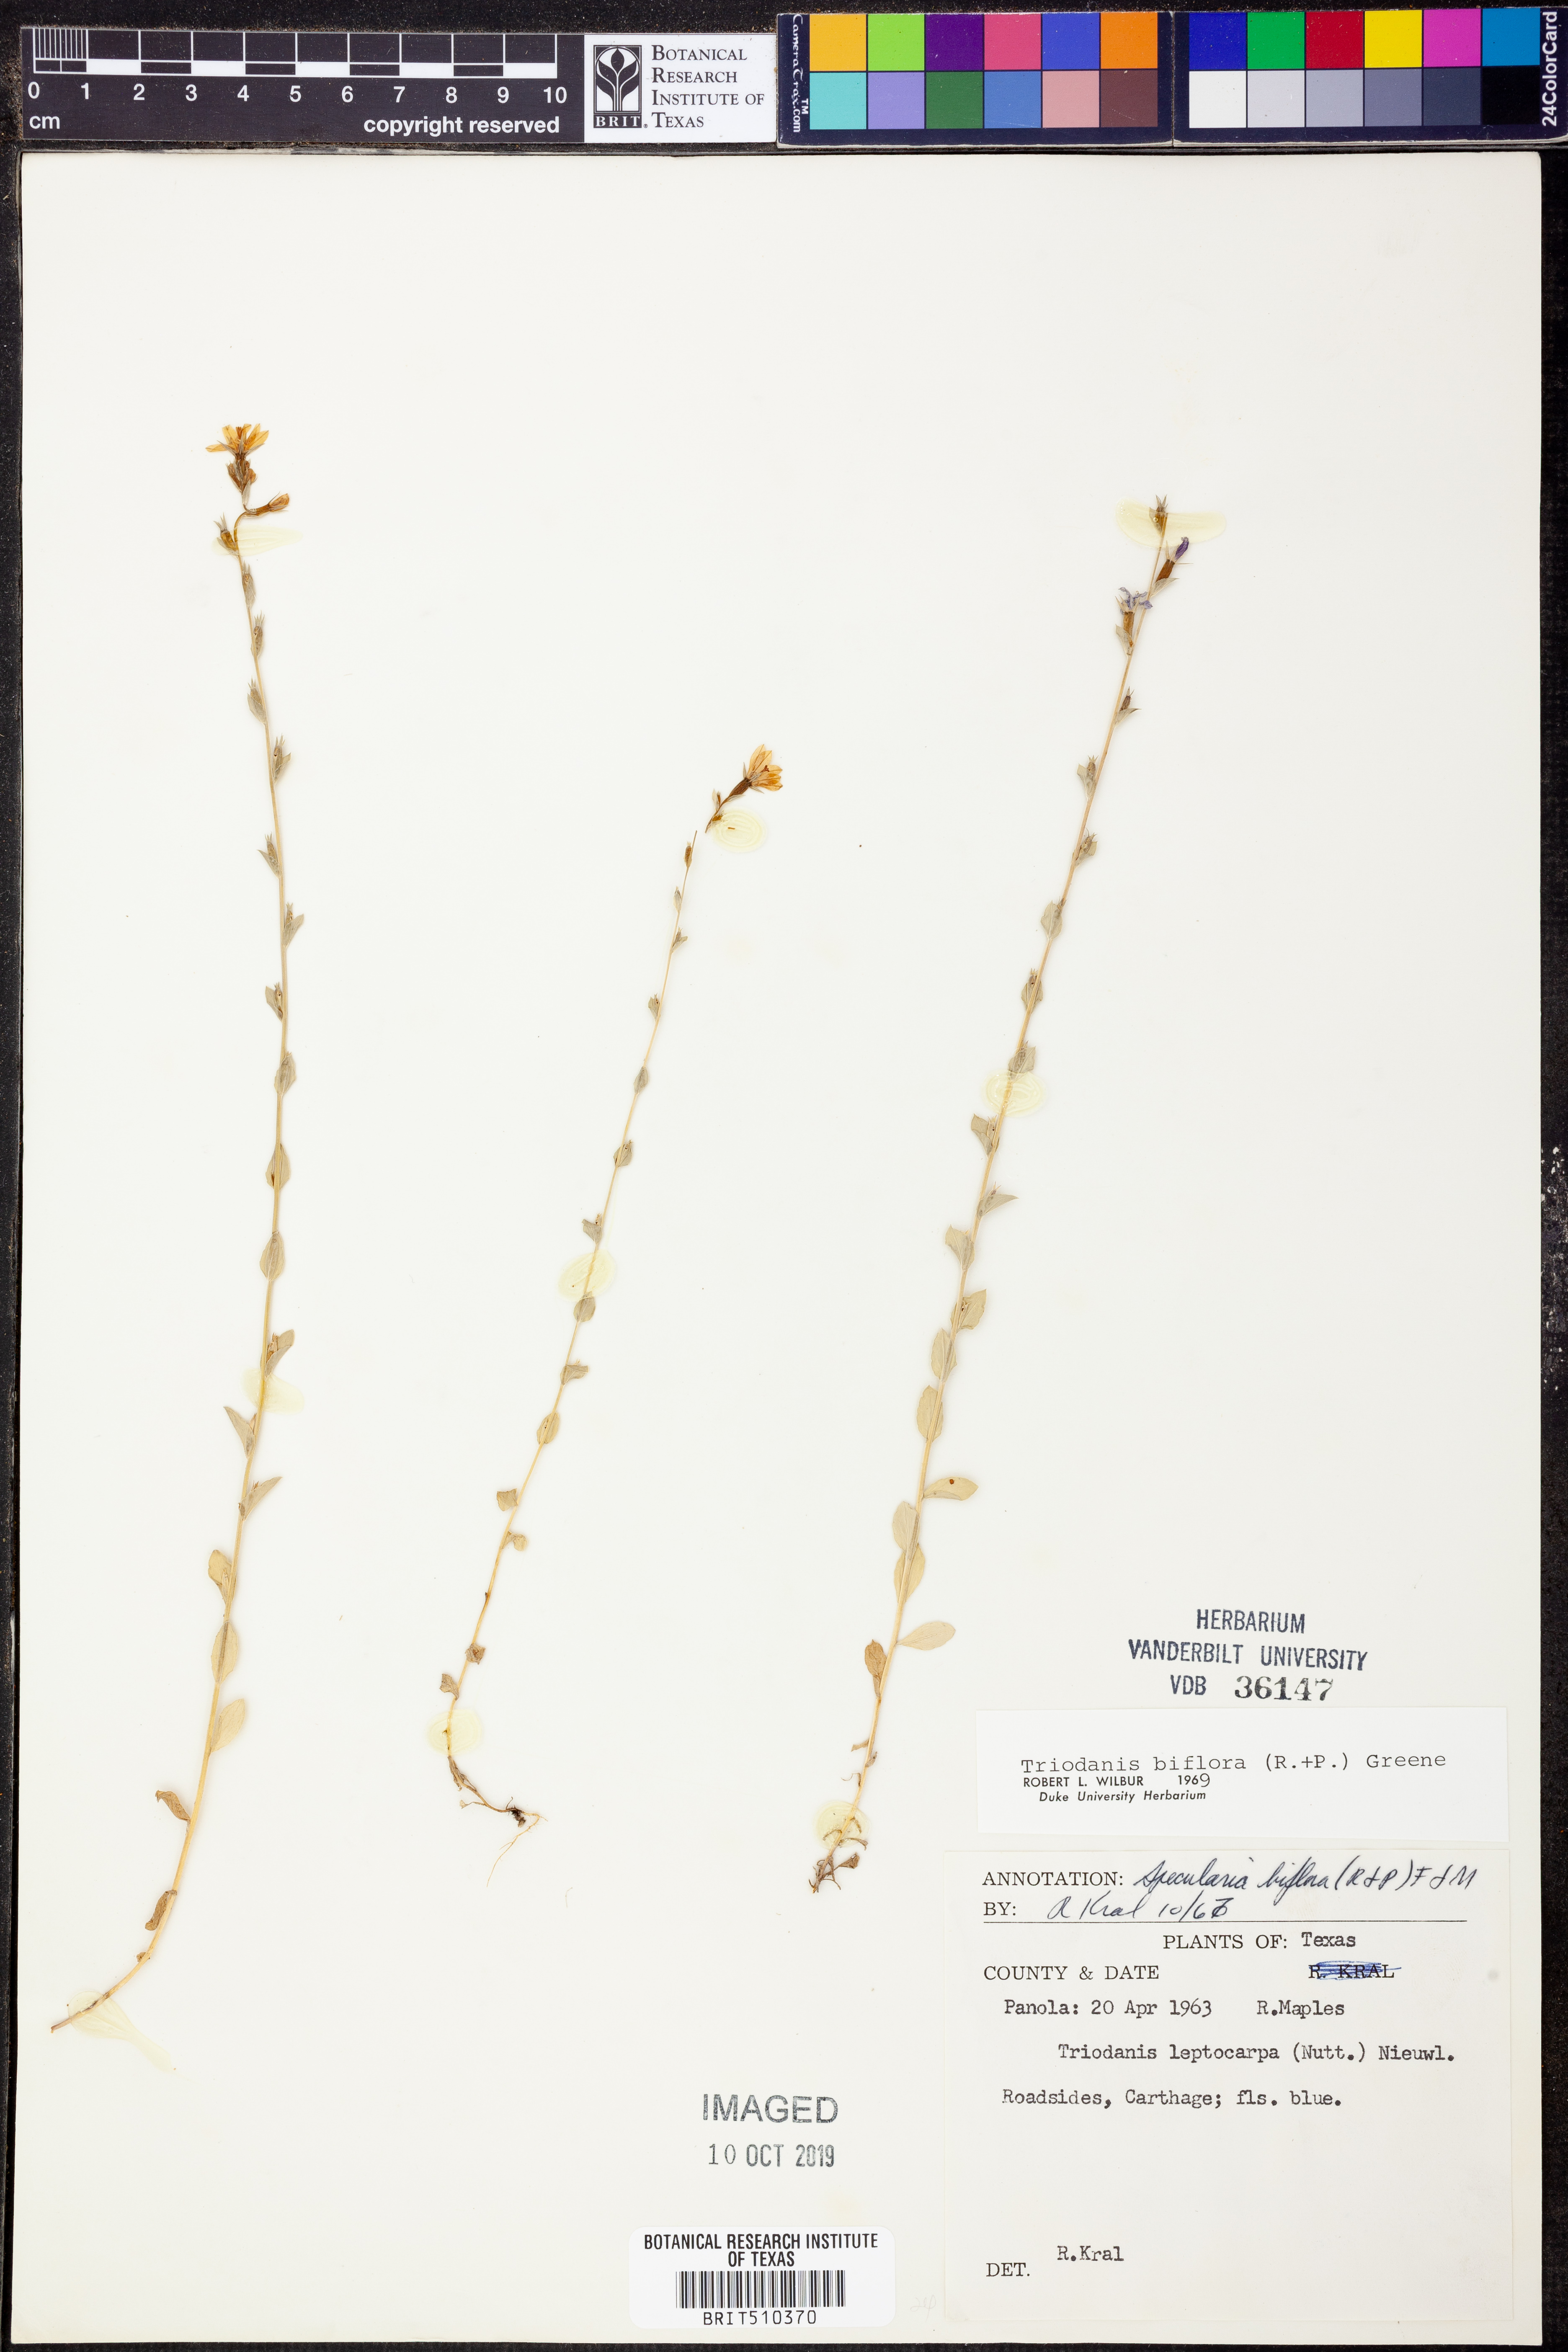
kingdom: Plantae
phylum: Tracheophyta
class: Magnoliopsida
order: Asterales
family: Campanulaceae
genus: Triodanis
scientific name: Triodanis perfoliata
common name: Clasping venus' looking-glass
